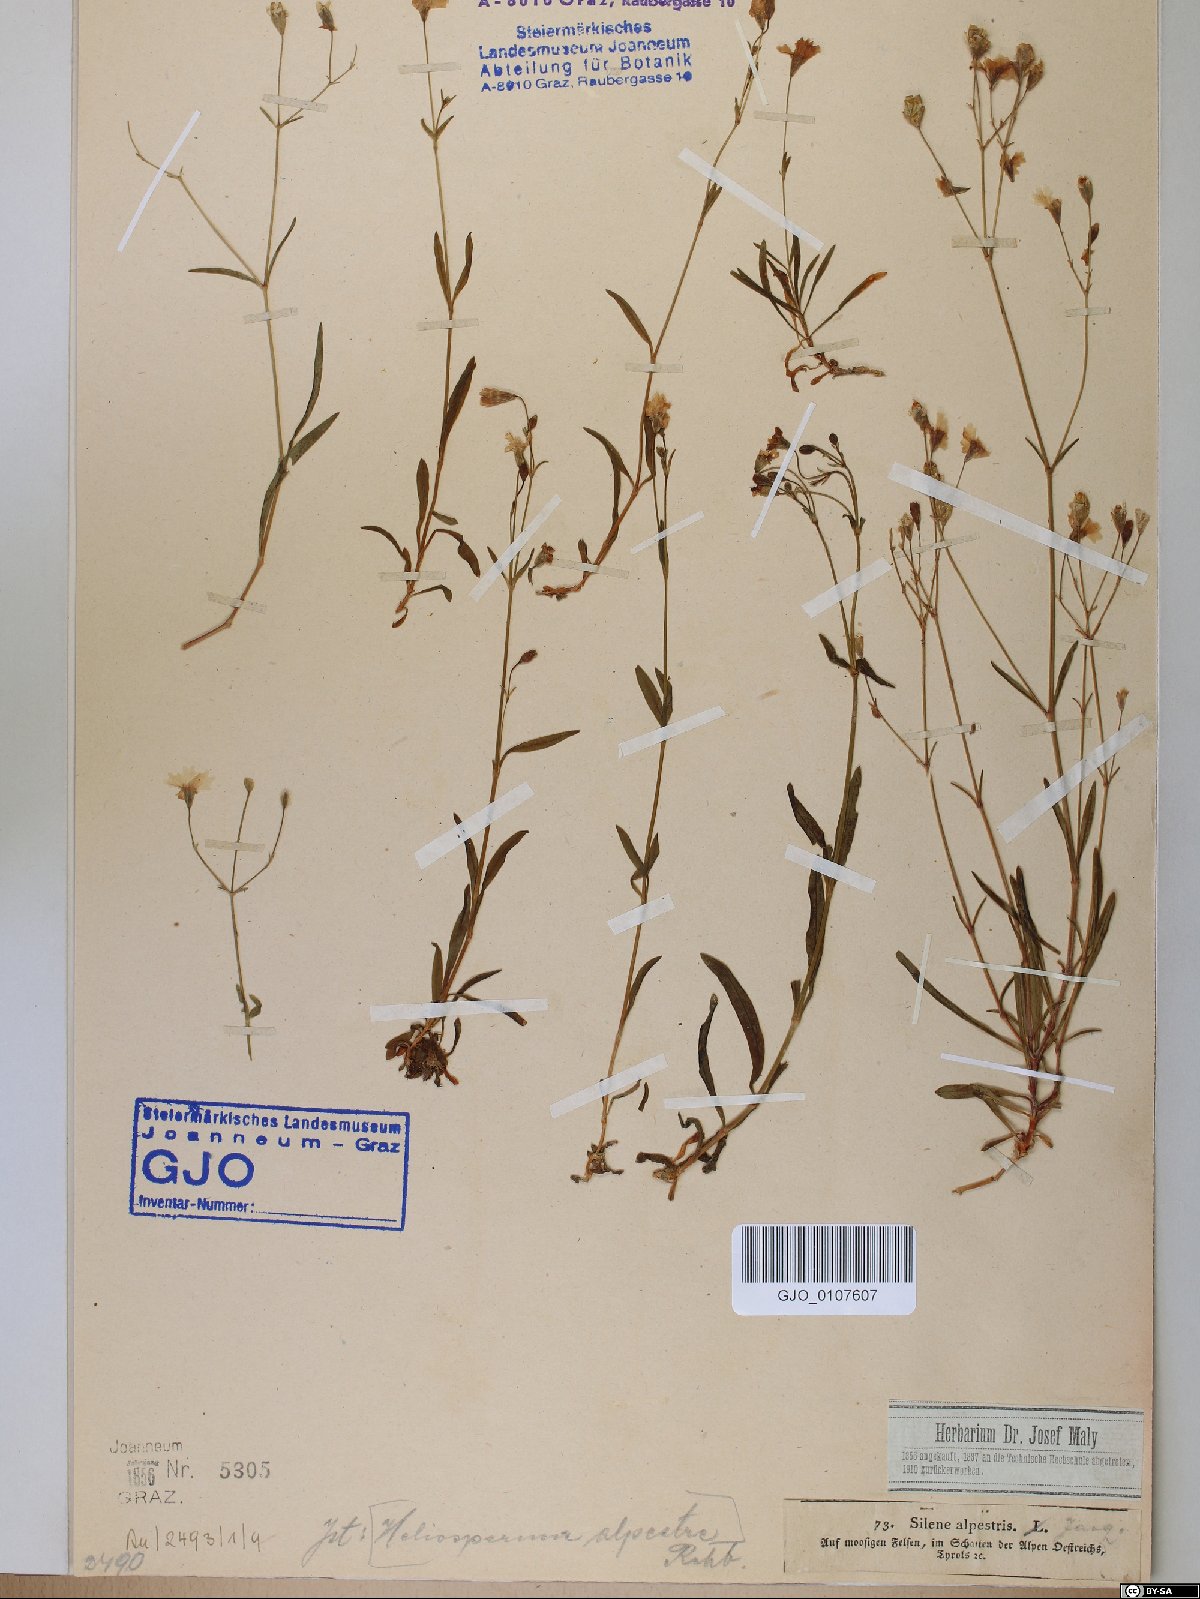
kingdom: Plantae
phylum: Tracheophyta
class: Magnoliopsida
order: Caryophyllales
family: Caryophyllaceae
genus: Heliosperma
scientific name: Heliosperma alpestre
